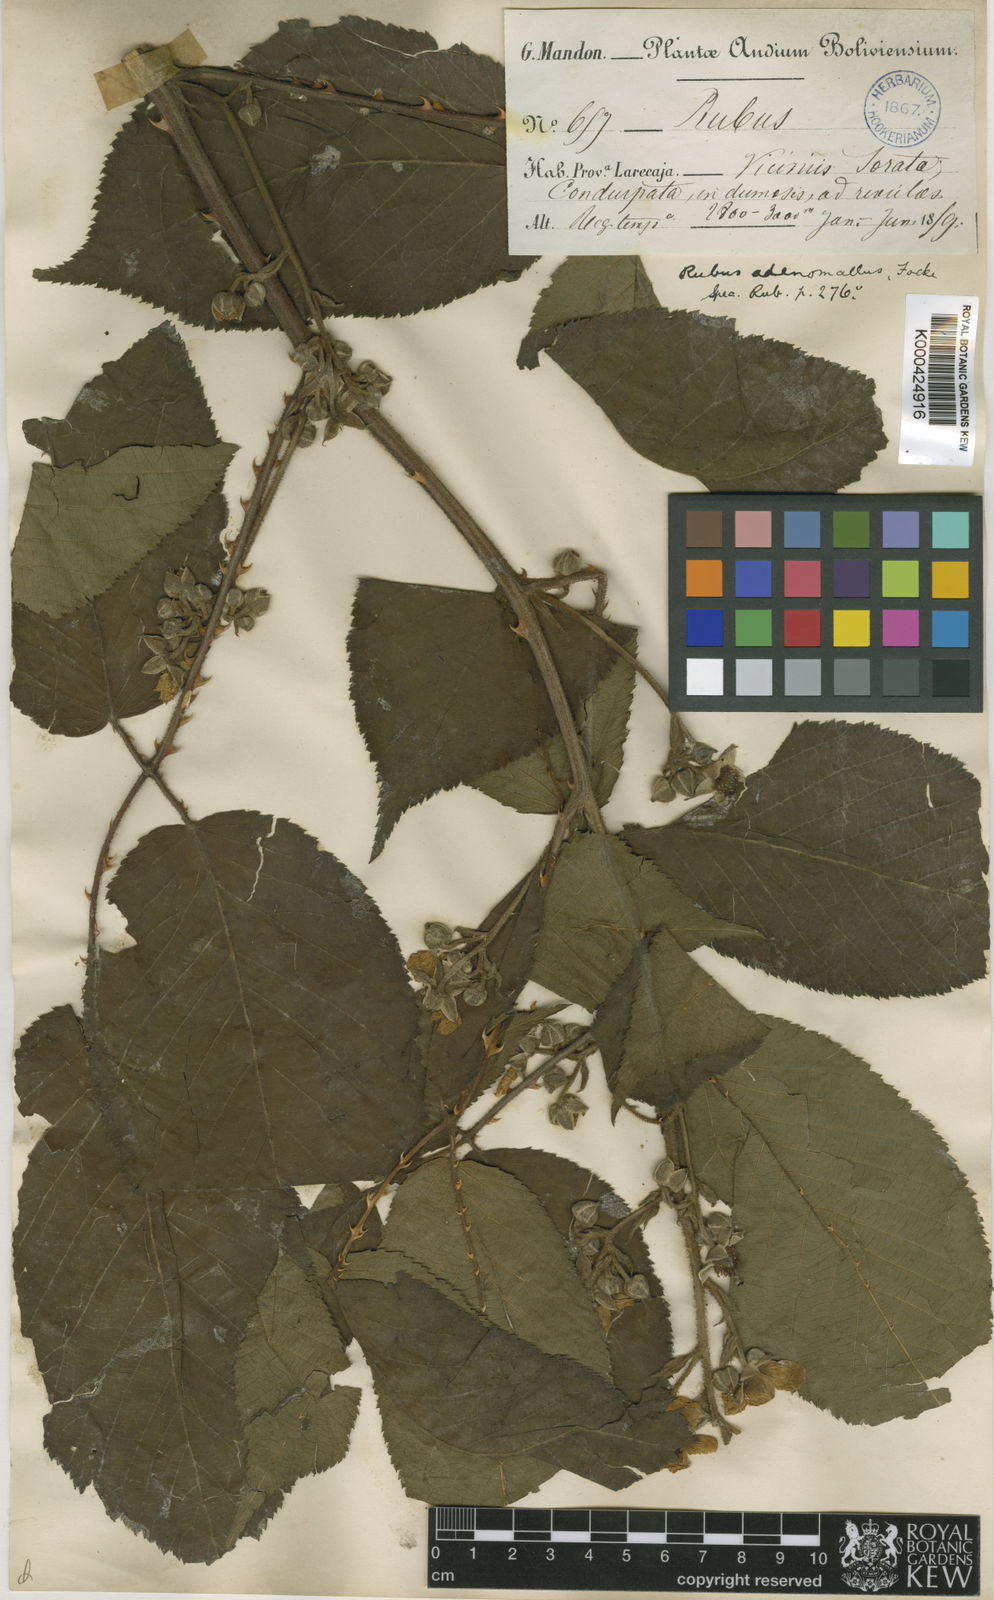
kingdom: Plantae
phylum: Tracheophyta
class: Magnoliopsida
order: Rosales
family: Rosaceae
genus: Rubus
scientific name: Rubus adenomallus
